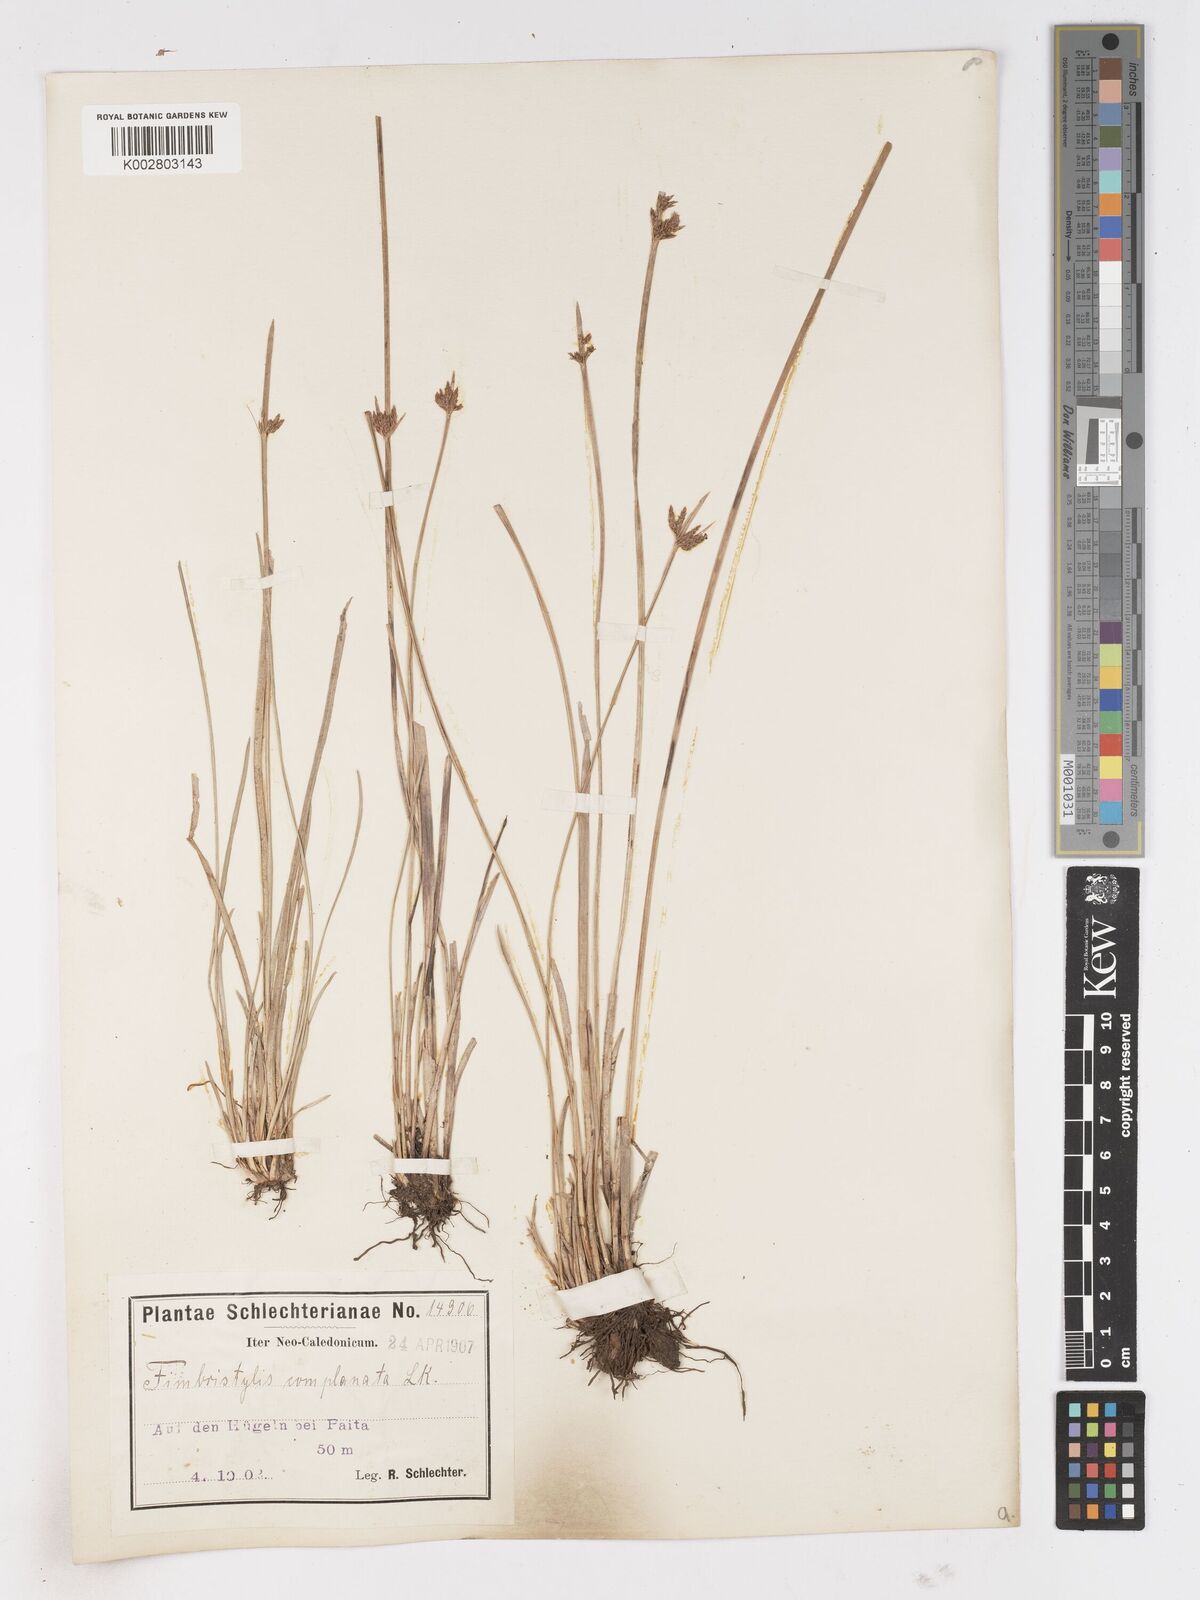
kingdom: Plantae
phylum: Tracheophyta
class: Liliopsida
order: Poales
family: Cyperaceae
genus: Fimbristylis
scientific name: Fimbristylis complanata
